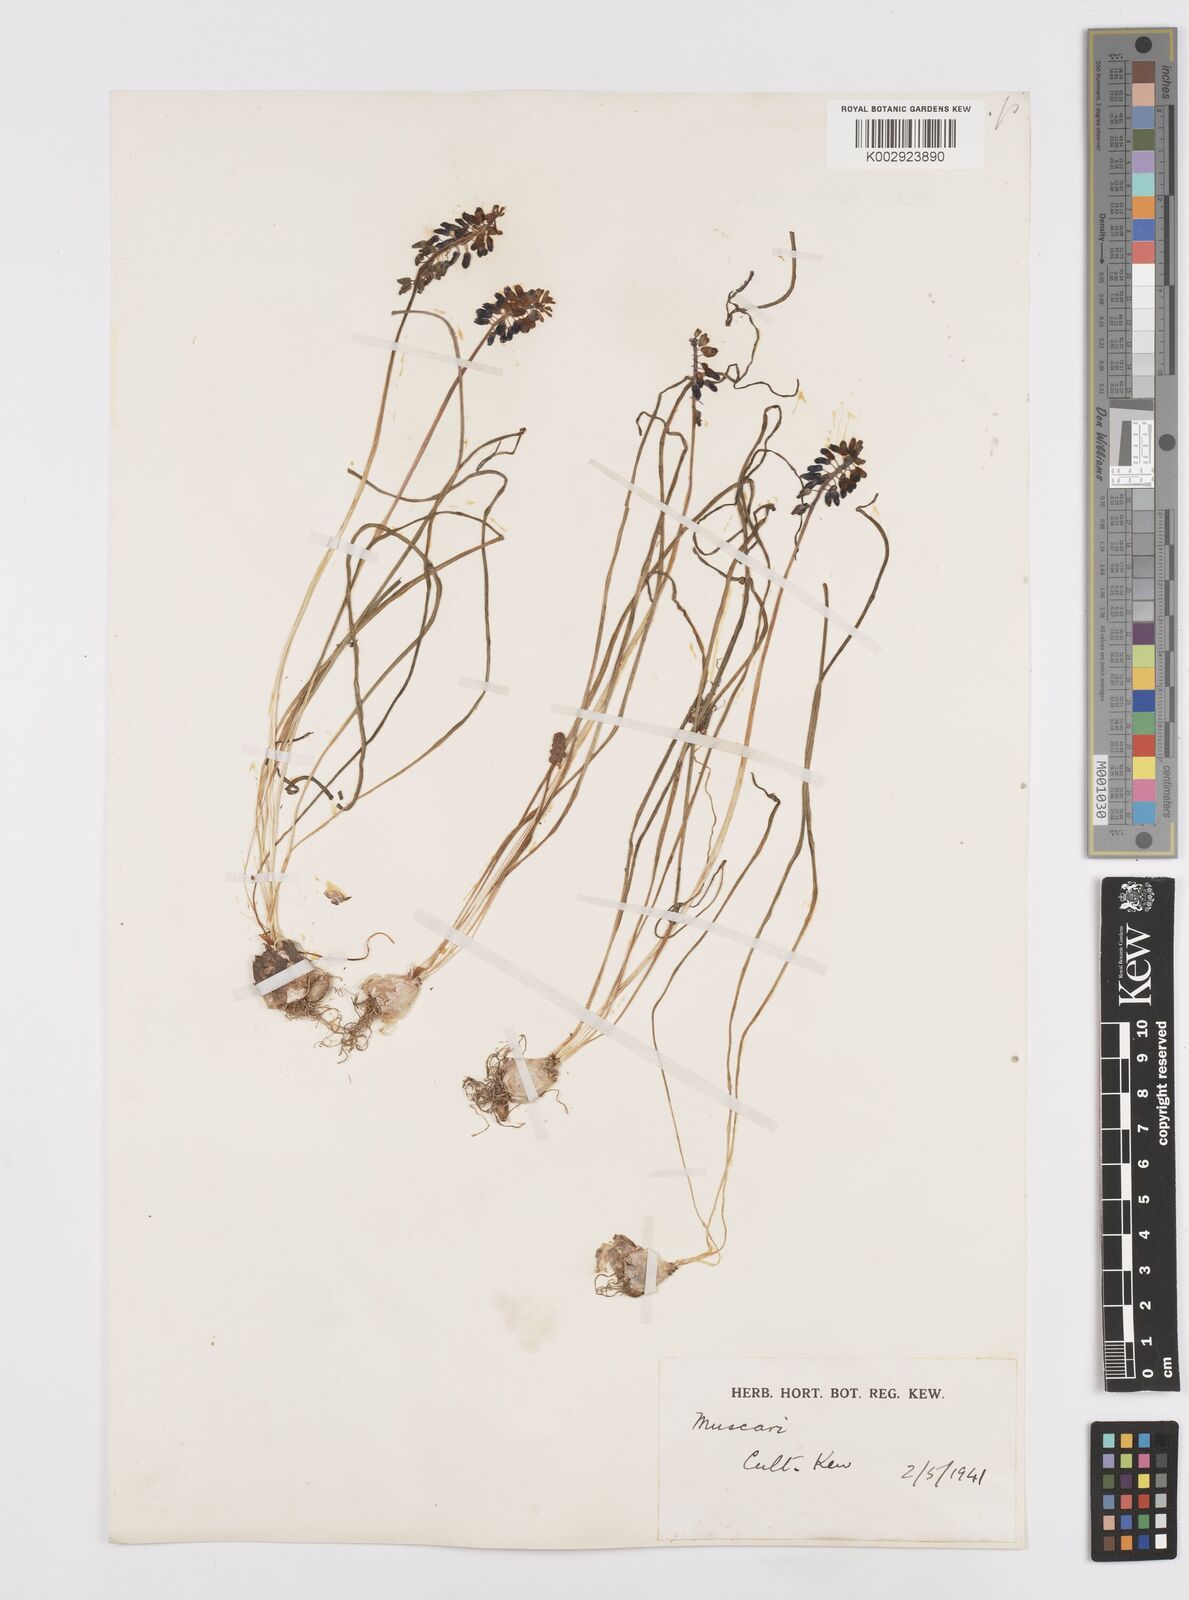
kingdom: Plantae
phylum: Tracheophyta
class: Liliopsida
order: Asparagales
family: Asparagaceae
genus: Muscari
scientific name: Muscari
